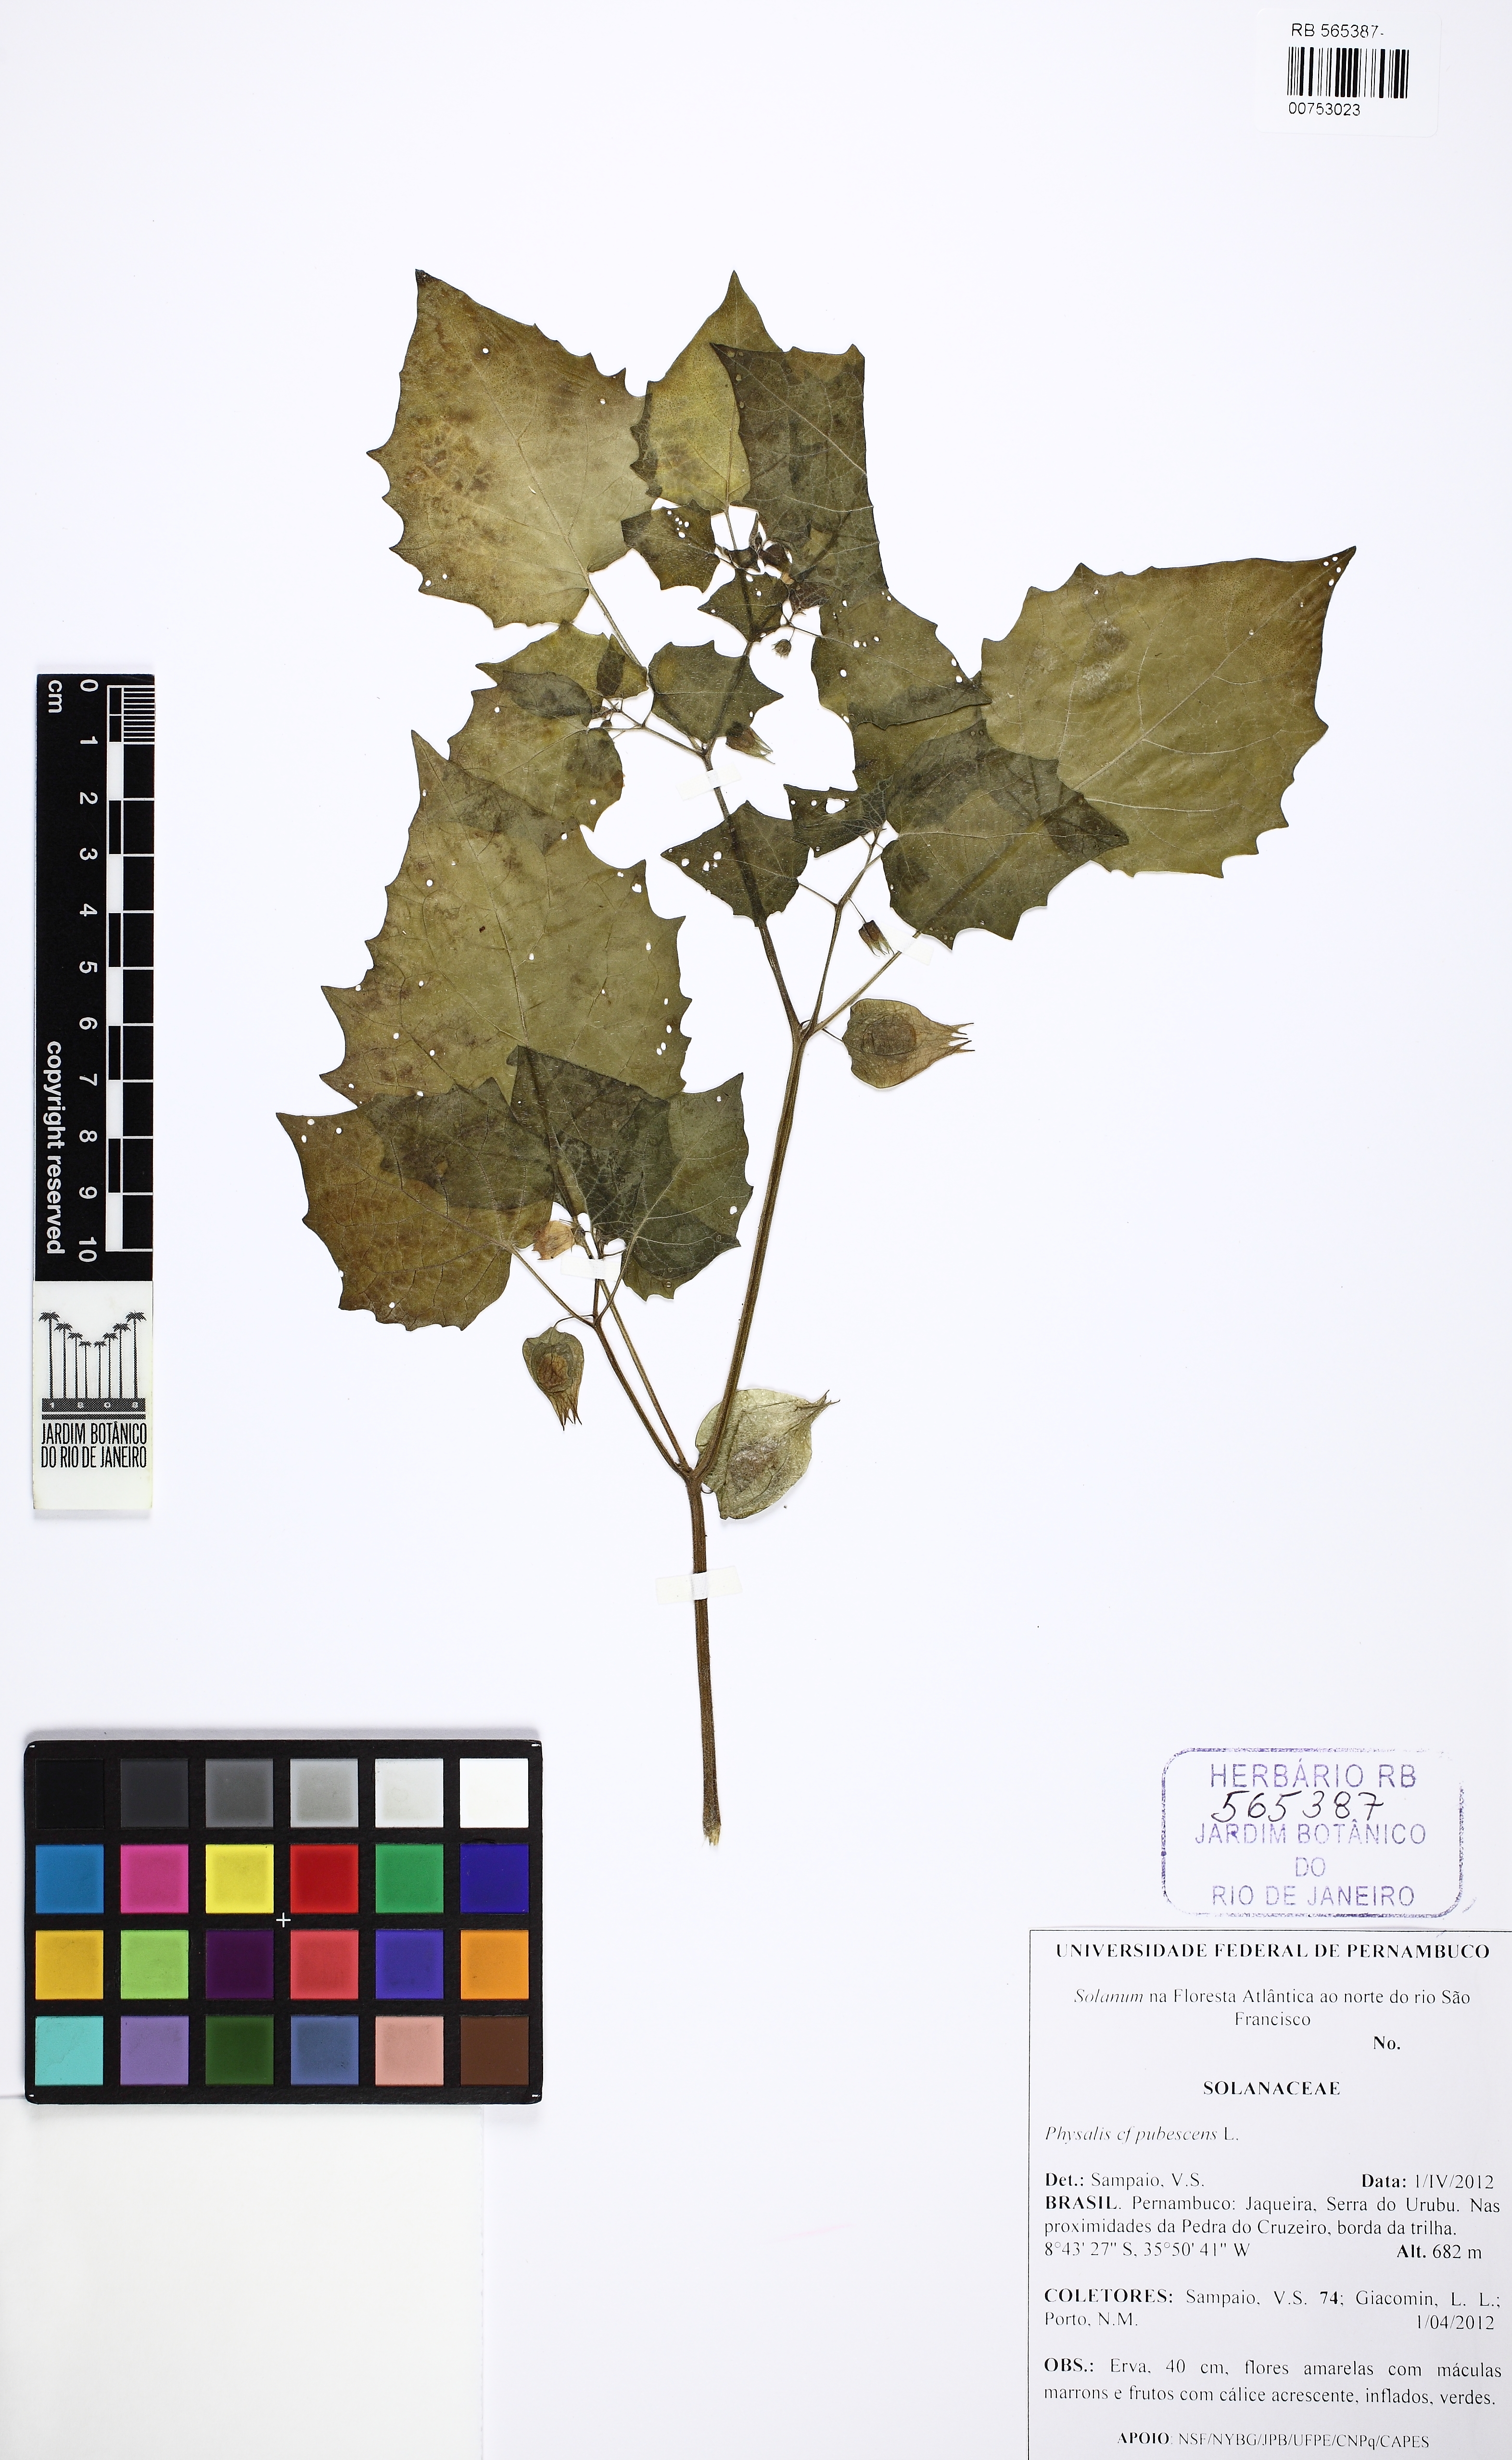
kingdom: Plantae
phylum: Tracheophyta
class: Magnoliopsida
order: Solanales
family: Solanaceae
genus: Physalis
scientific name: Physalis pubescens
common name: Downy ground-cherry
